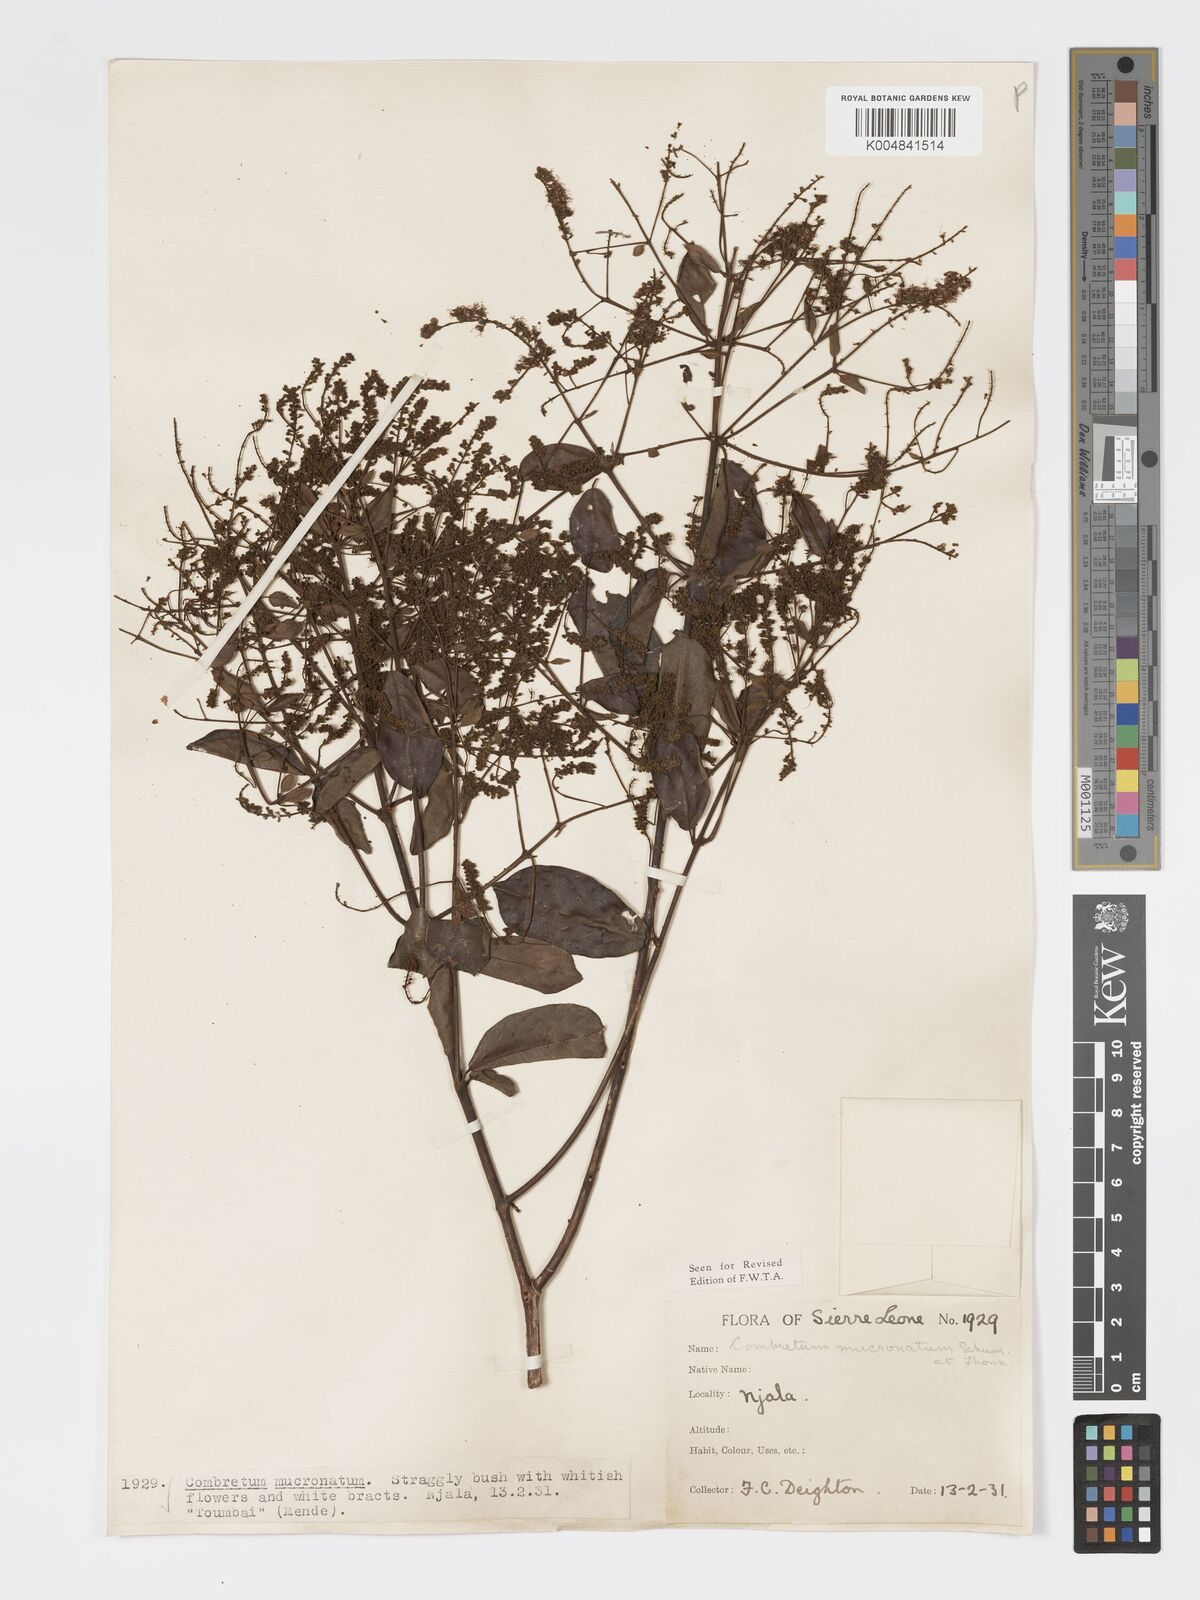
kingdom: Plantae
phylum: Tracheophyta
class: Magnoliopsida
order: Myrtales
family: Combretaceae
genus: Combretum
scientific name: Combretum mucronatum
